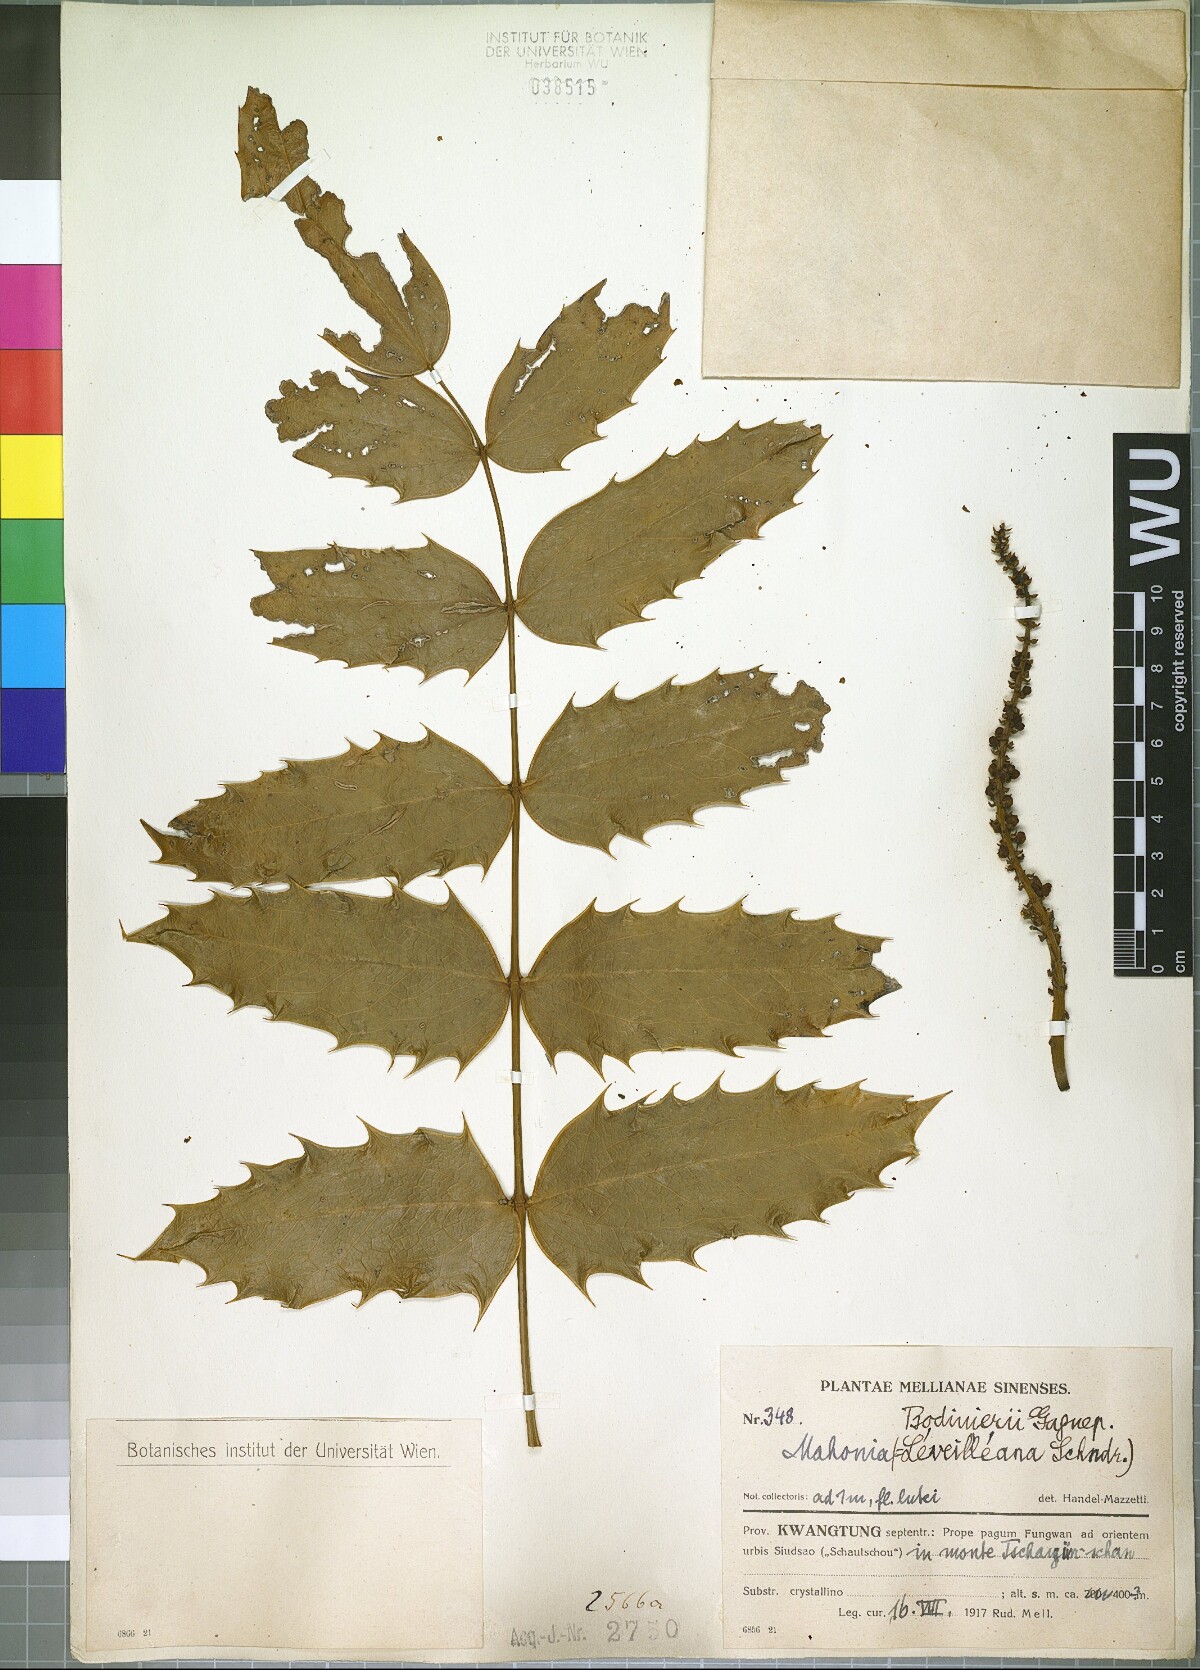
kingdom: Plantae
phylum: Tracheophyta
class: Magnoliopsida
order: Ranunculales
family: Berberidaceae
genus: Mahonia
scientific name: Mahonia leveilleana
